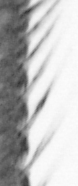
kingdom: Animalia
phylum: Annelida
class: Polychaeta
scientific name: Polychaeta
